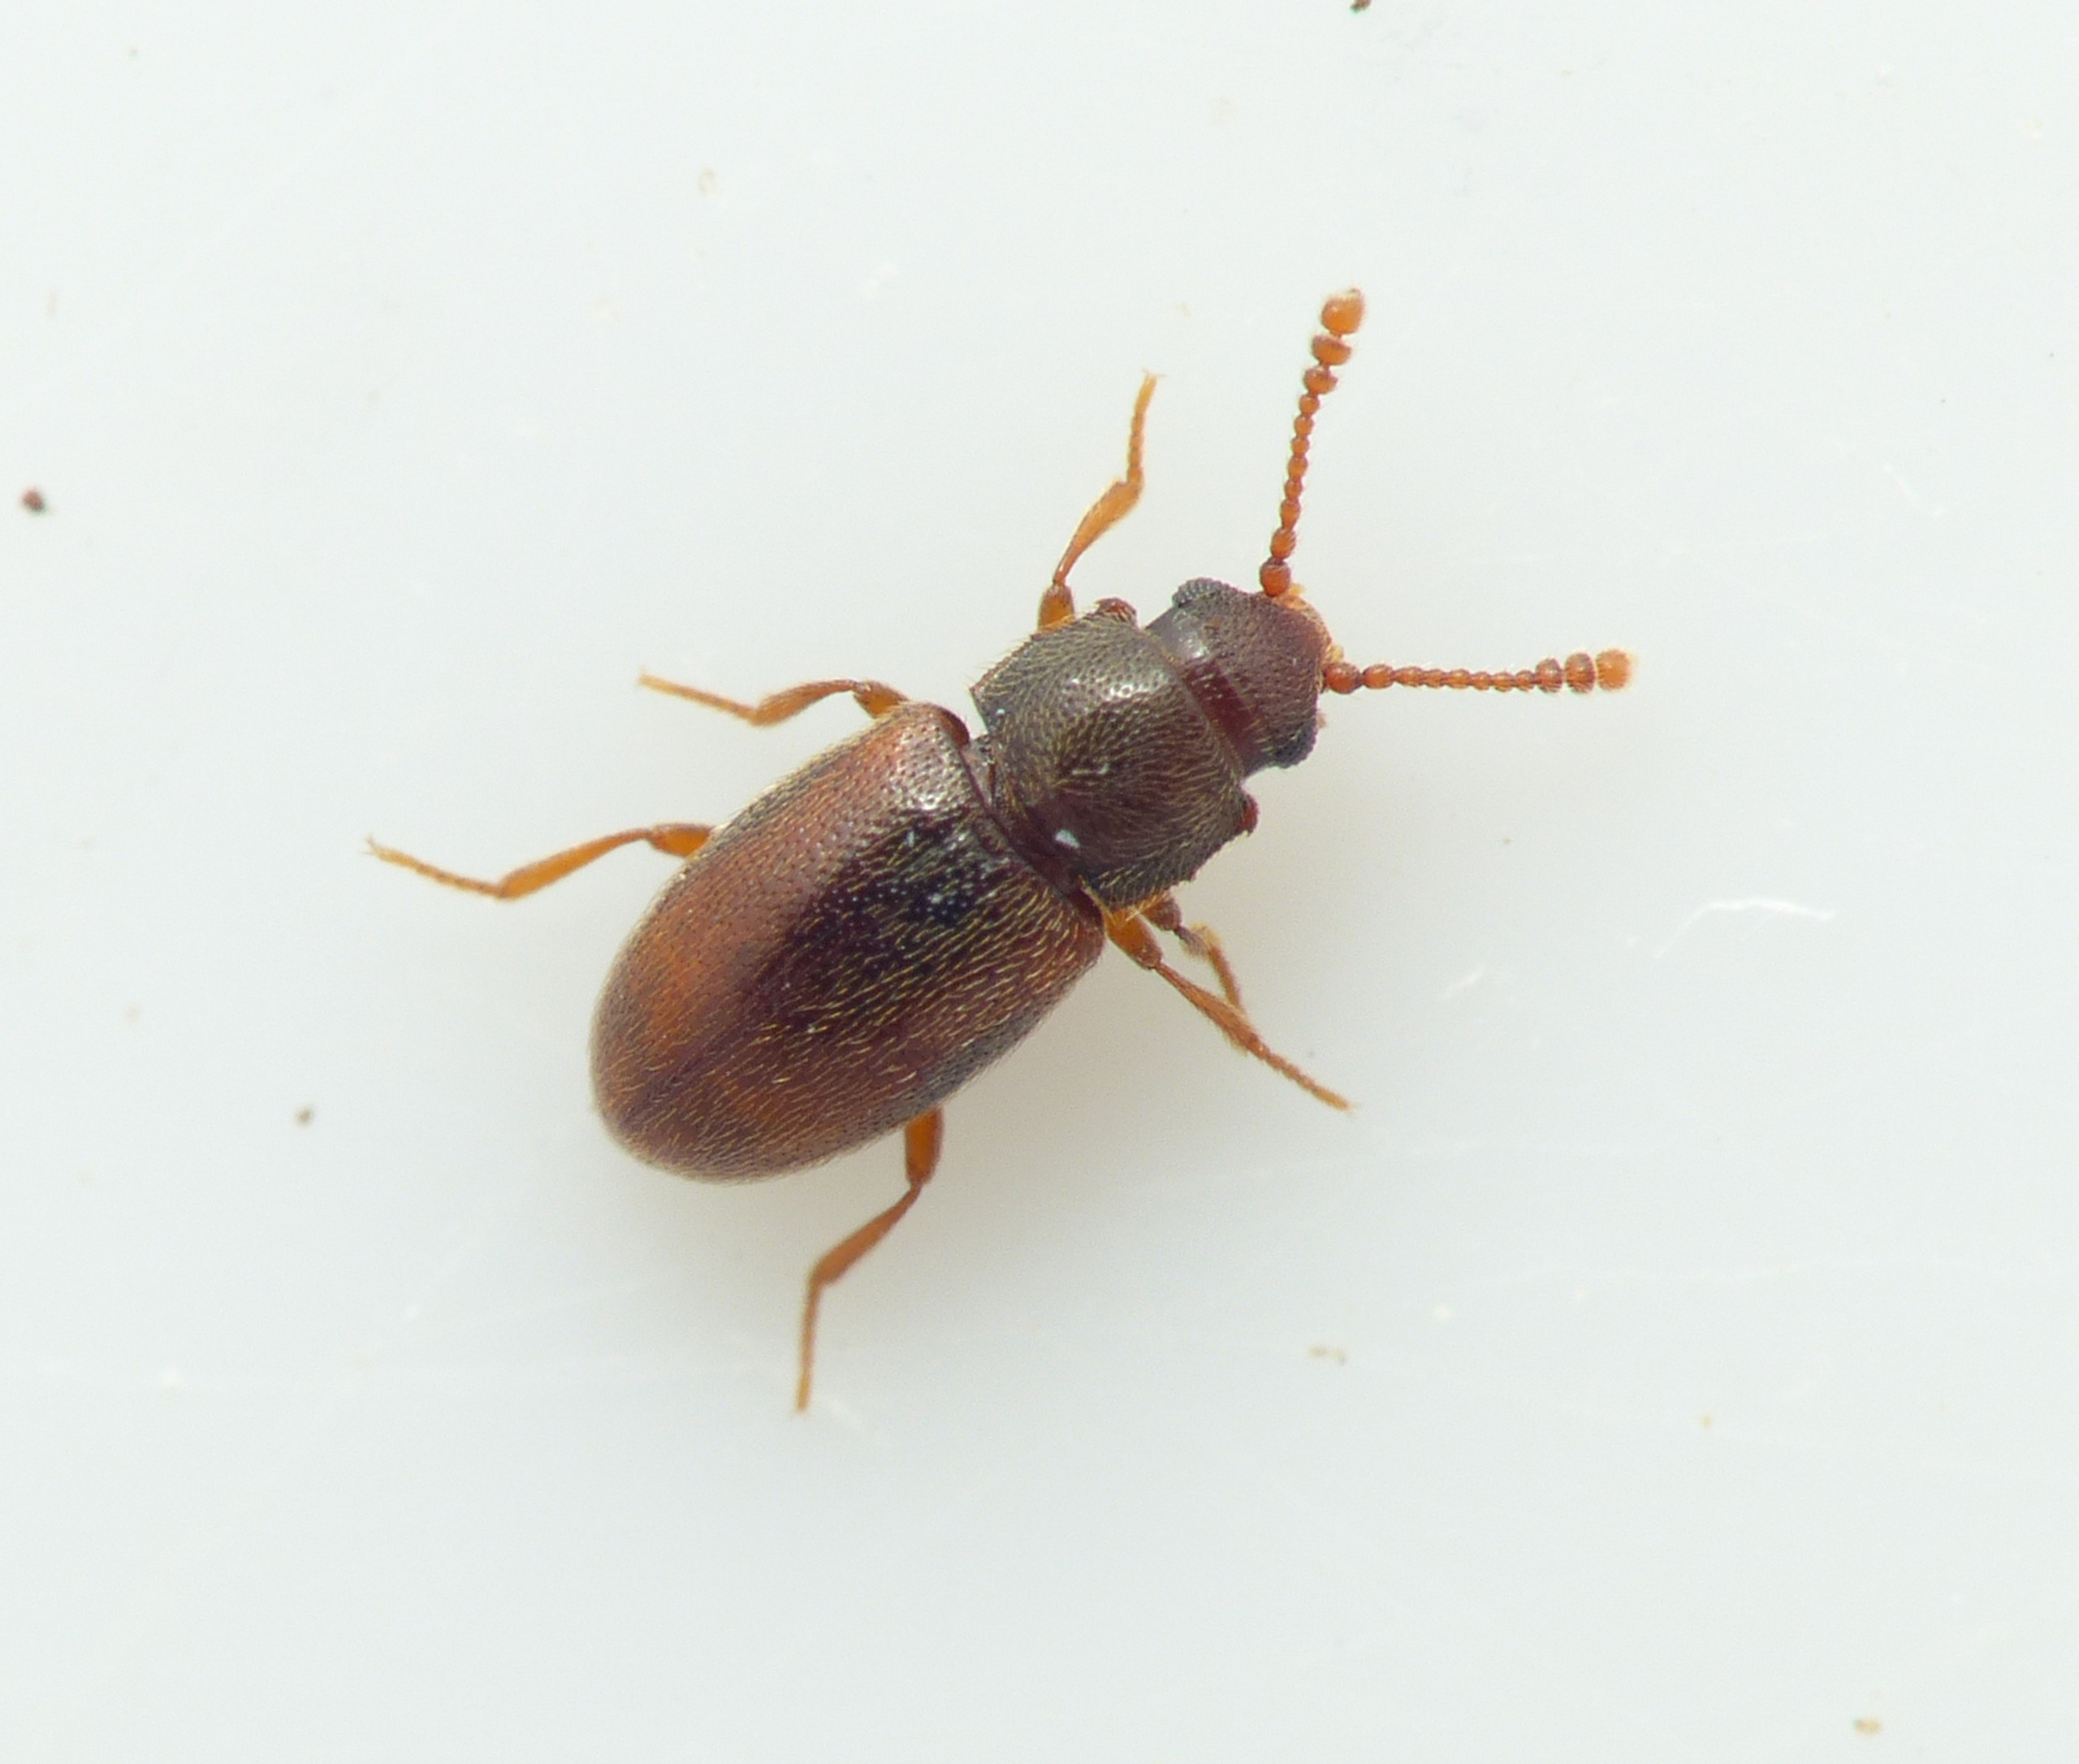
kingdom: Animalia
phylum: Arthropoda
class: Insecta
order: Coleoptera
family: Cryptophagidae
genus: Cryptophagus
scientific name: Cryptophagus distinguendus
